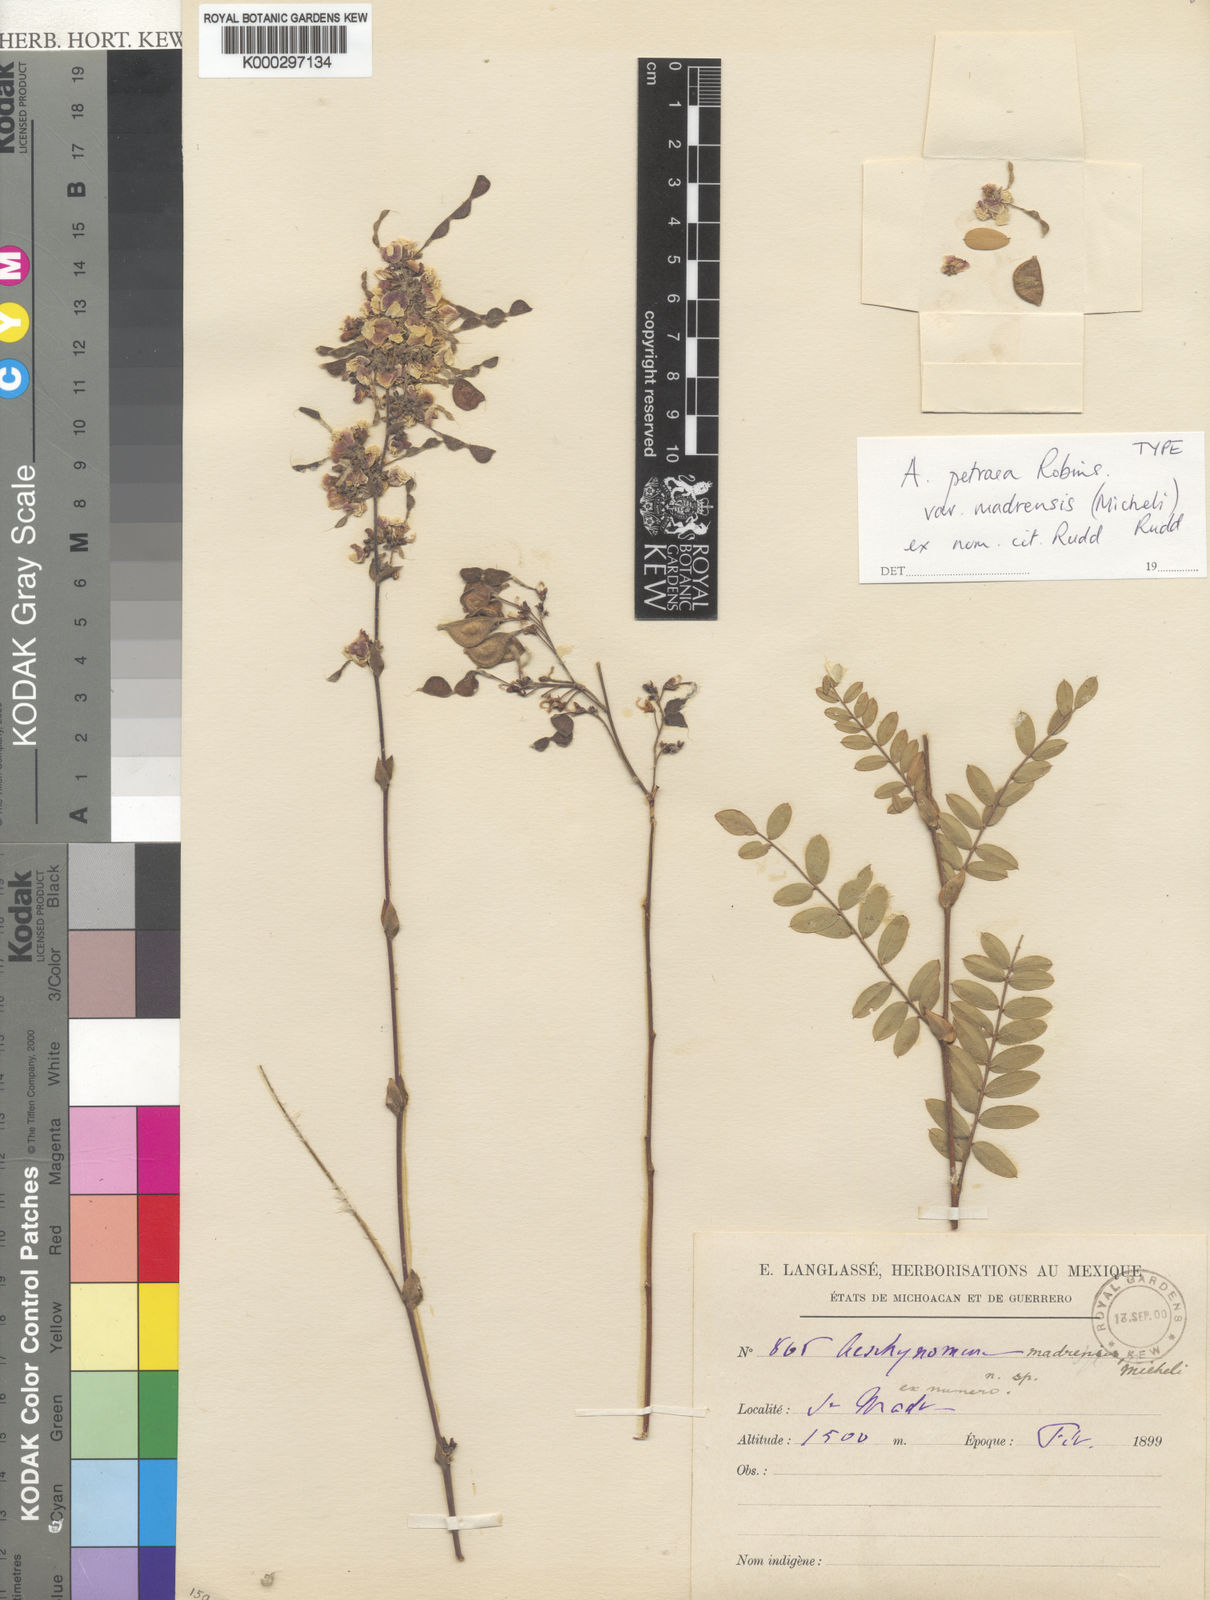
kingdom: Plantae
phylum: Tracheophyta
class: Magnoliopsida
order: Fabales
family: Fabaceae
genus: Ctenodon
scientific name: Ctenodon petraeus
